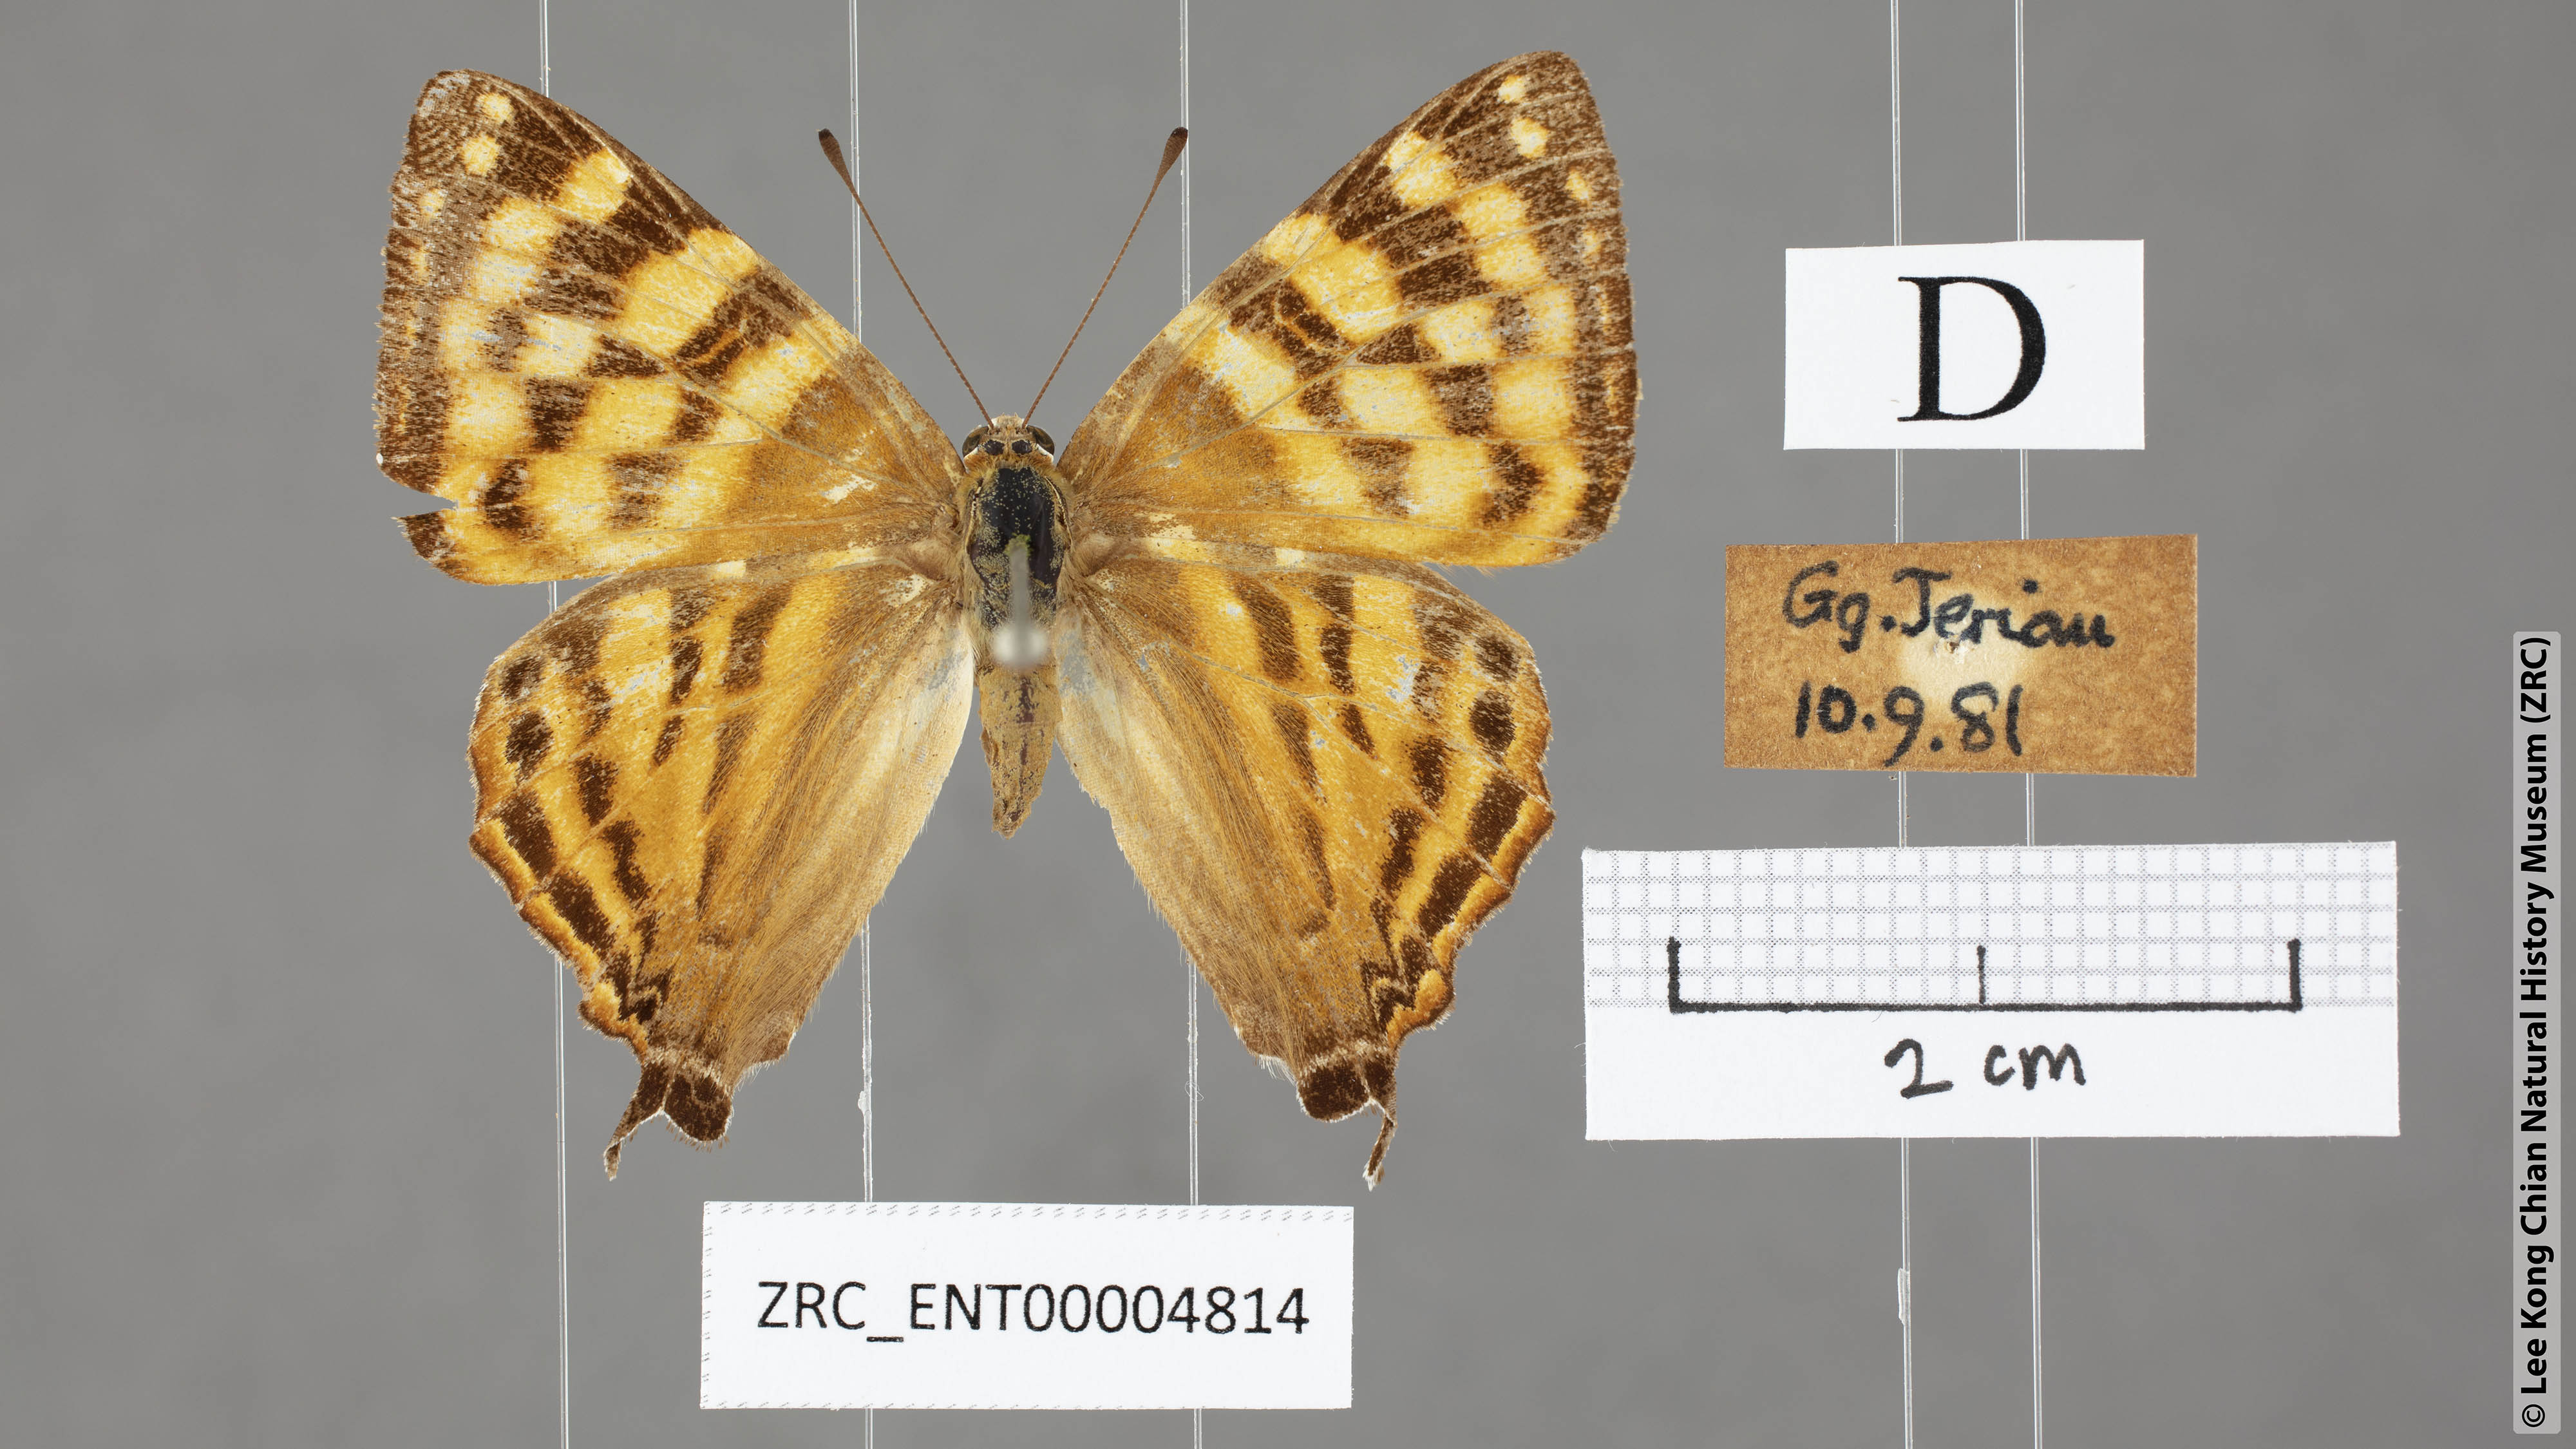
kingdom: Animalia
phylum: Arthropoda
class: Insecta
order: Lepidoptera
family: Lycaenidae
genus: Dodona
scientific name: Dodona deodata
